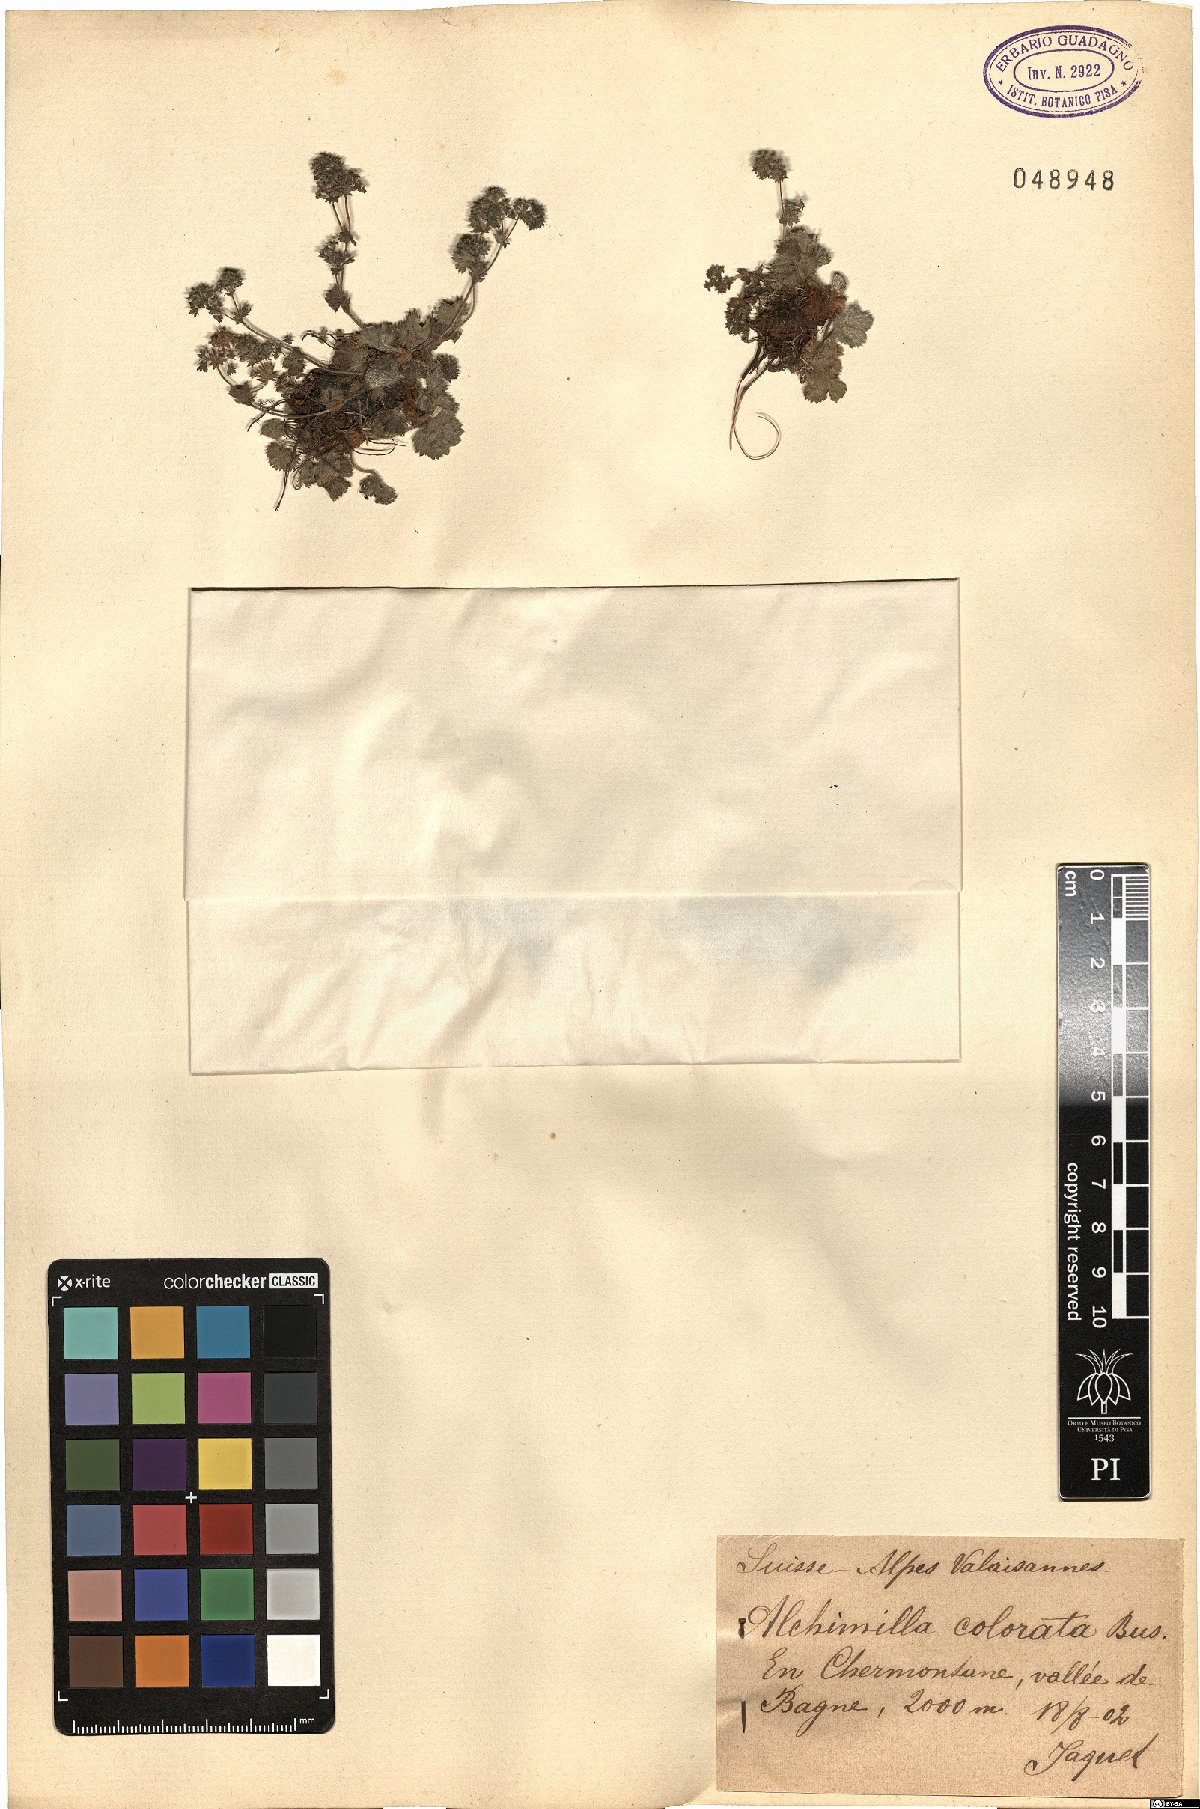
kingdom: Plantae
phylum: Tracheophyta
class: Magnoliopsida
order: Rosales
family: Rosaceae
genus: Alchemilla
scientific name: Alchemilla colorata
